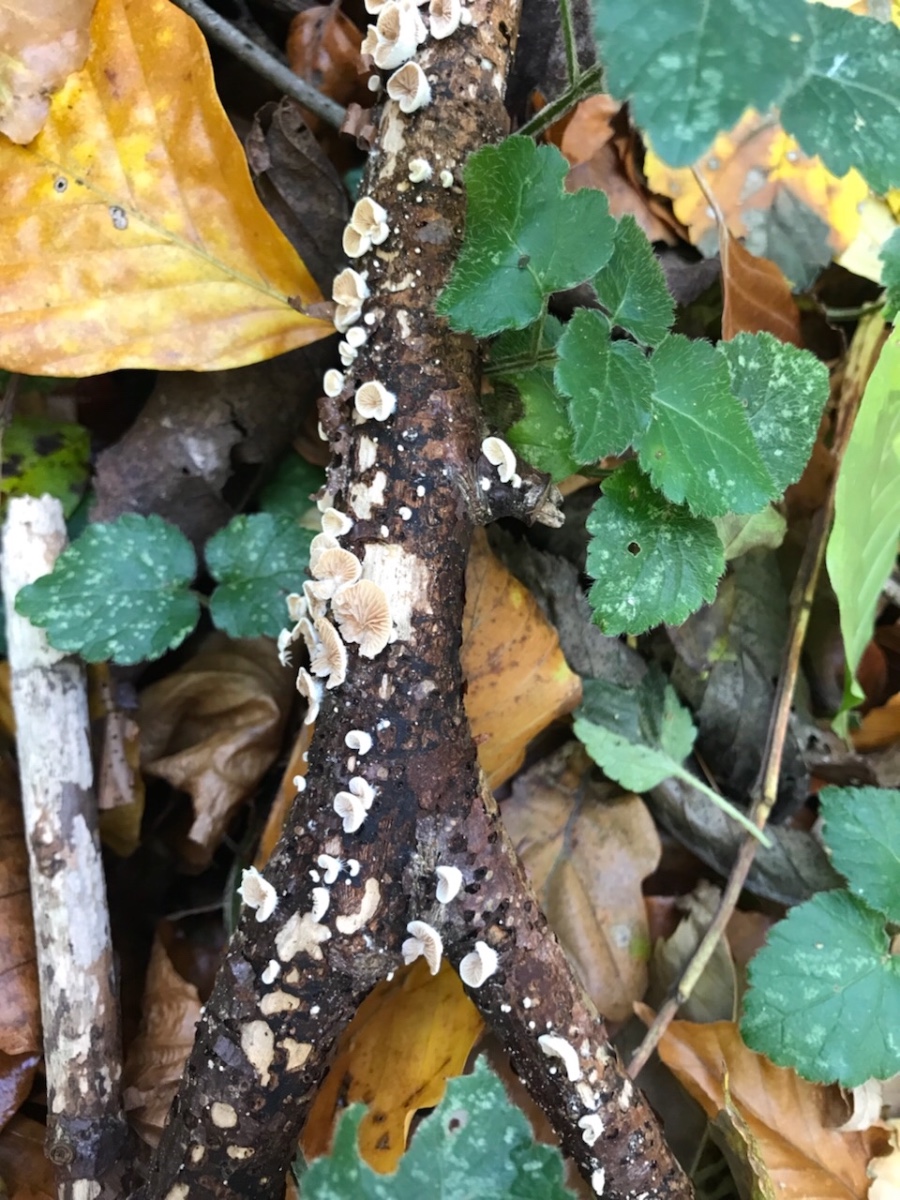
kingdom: Fungi
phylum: Basidiomycota
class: Agaricomycetes
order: Agaricales
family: Crepidotaceae
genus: Crepidotus
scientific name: Crepidotus
